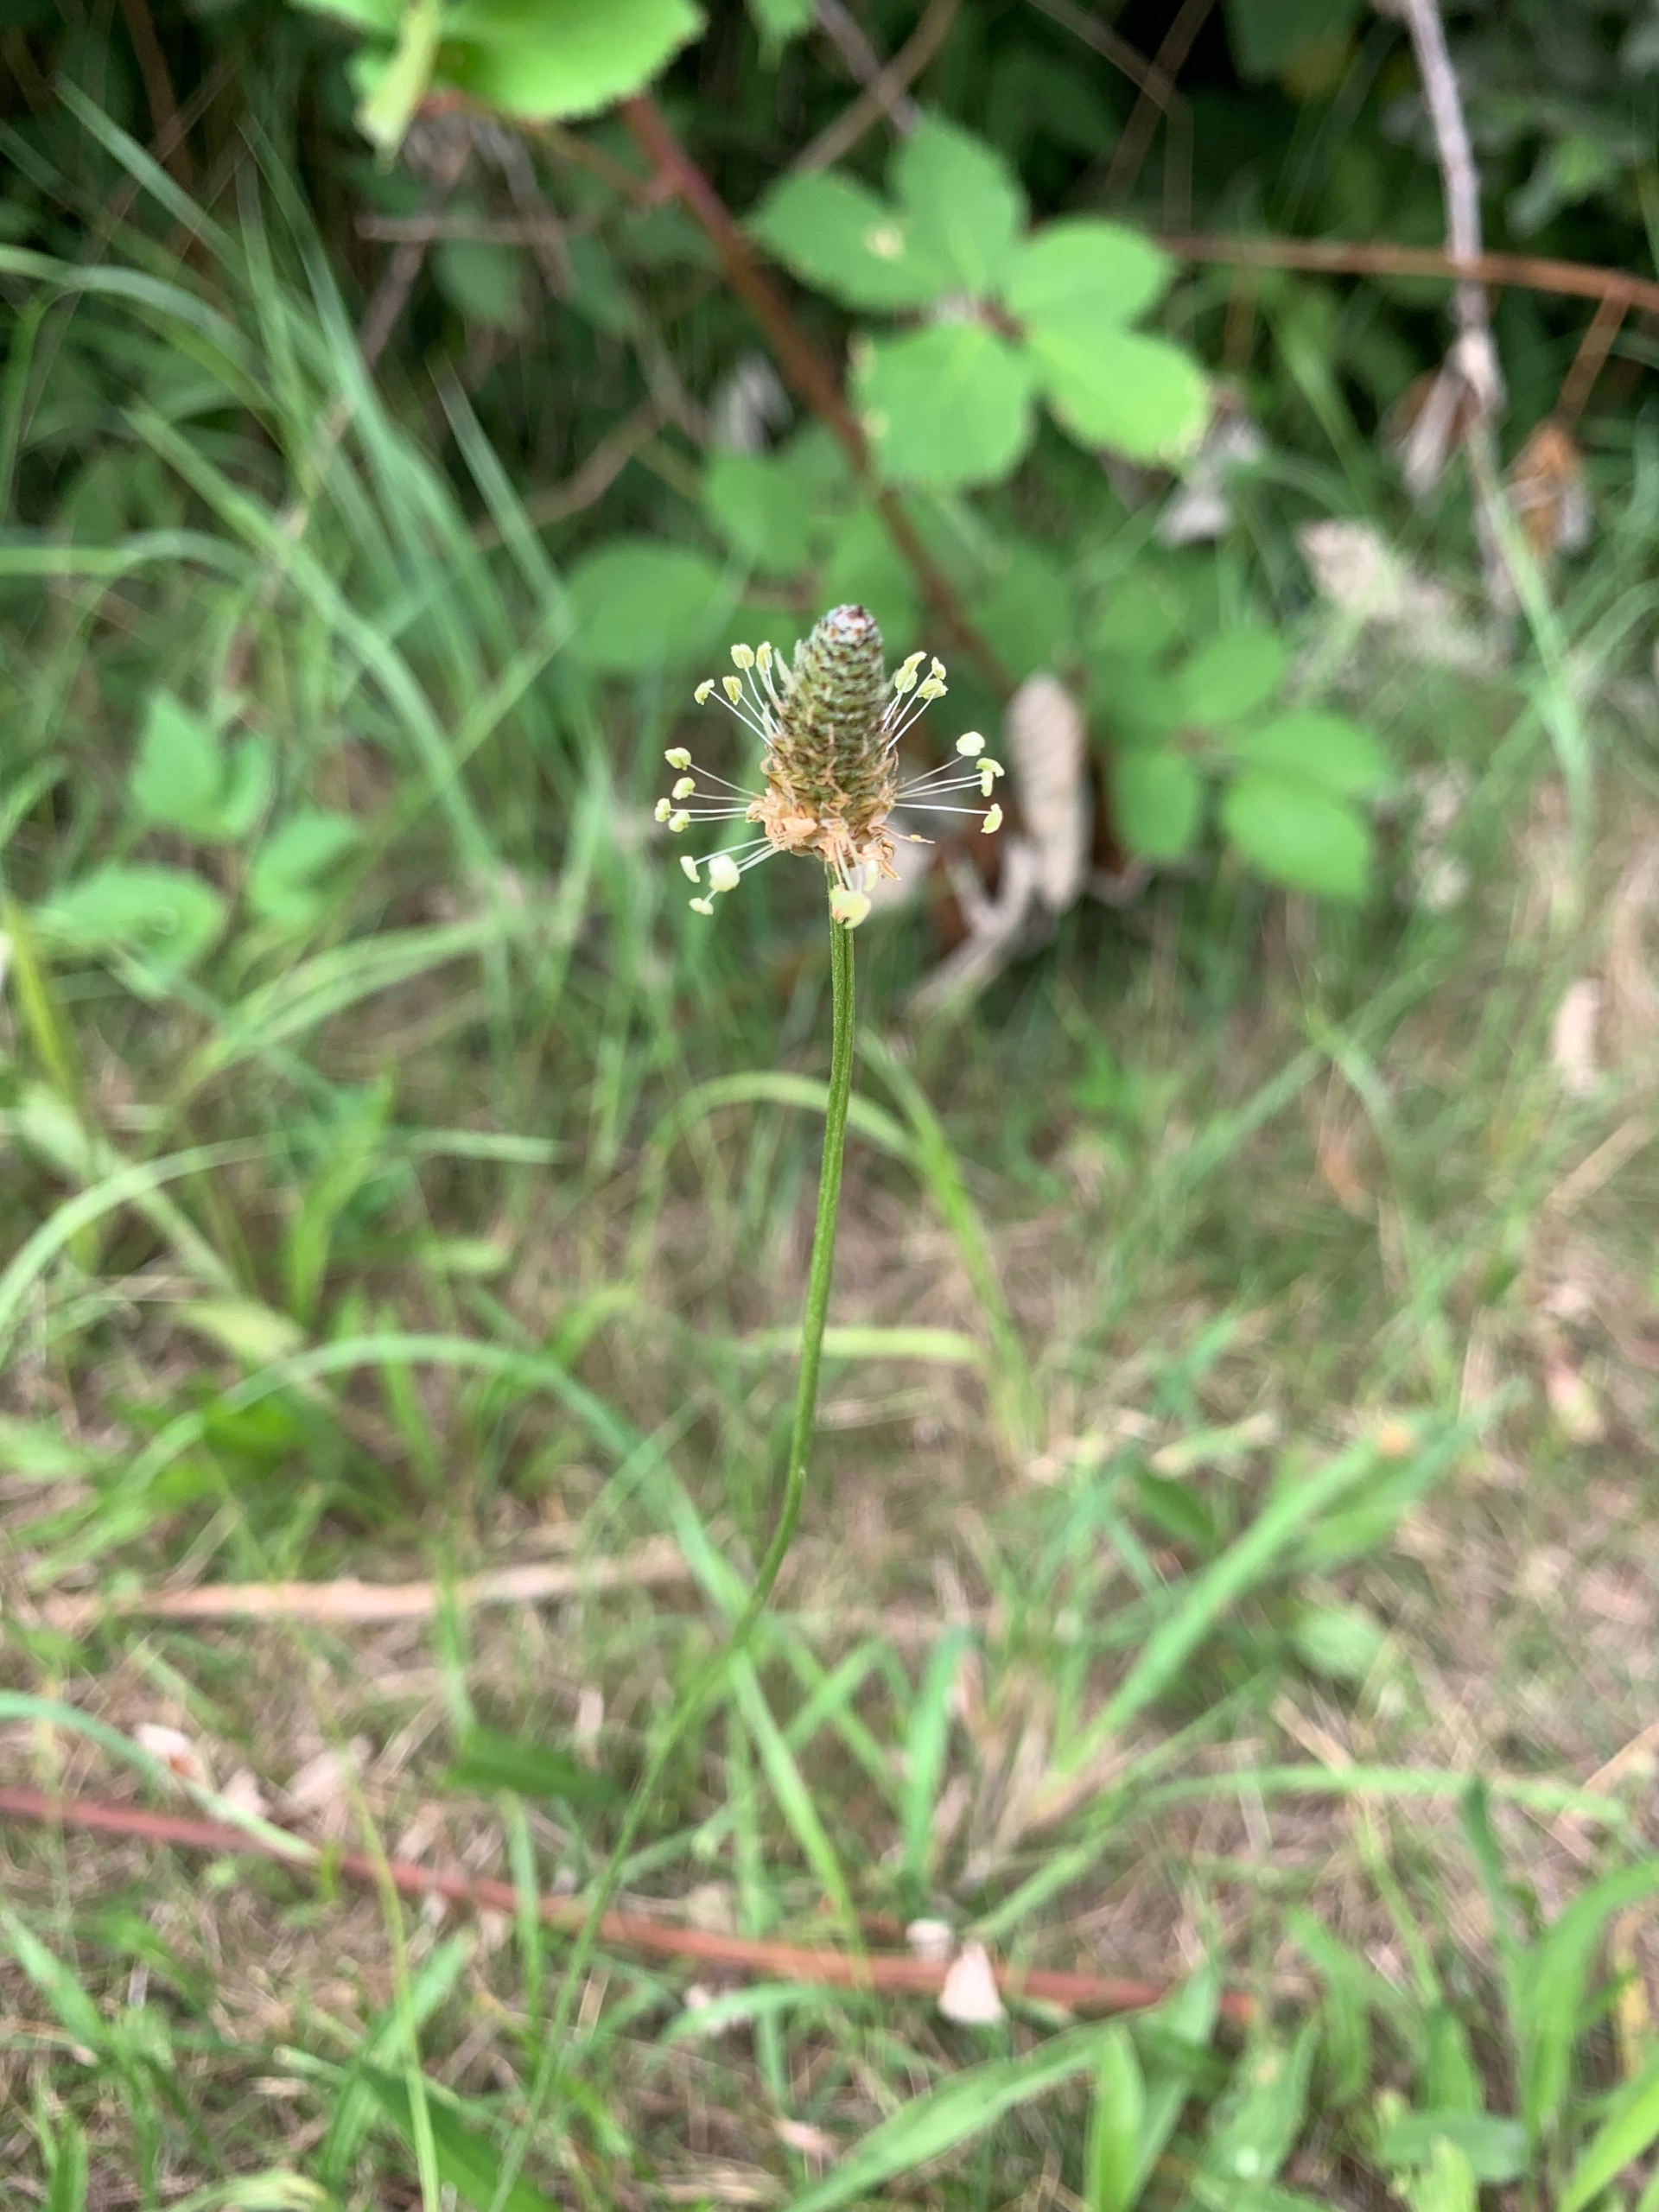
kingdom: Plantae
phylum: Tracheophyta
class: Magnoliopsida
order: Lamiales
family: Plantaginaceae
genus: Plantago
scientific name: Plantago lanceolata
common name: Lancet-vejbred
